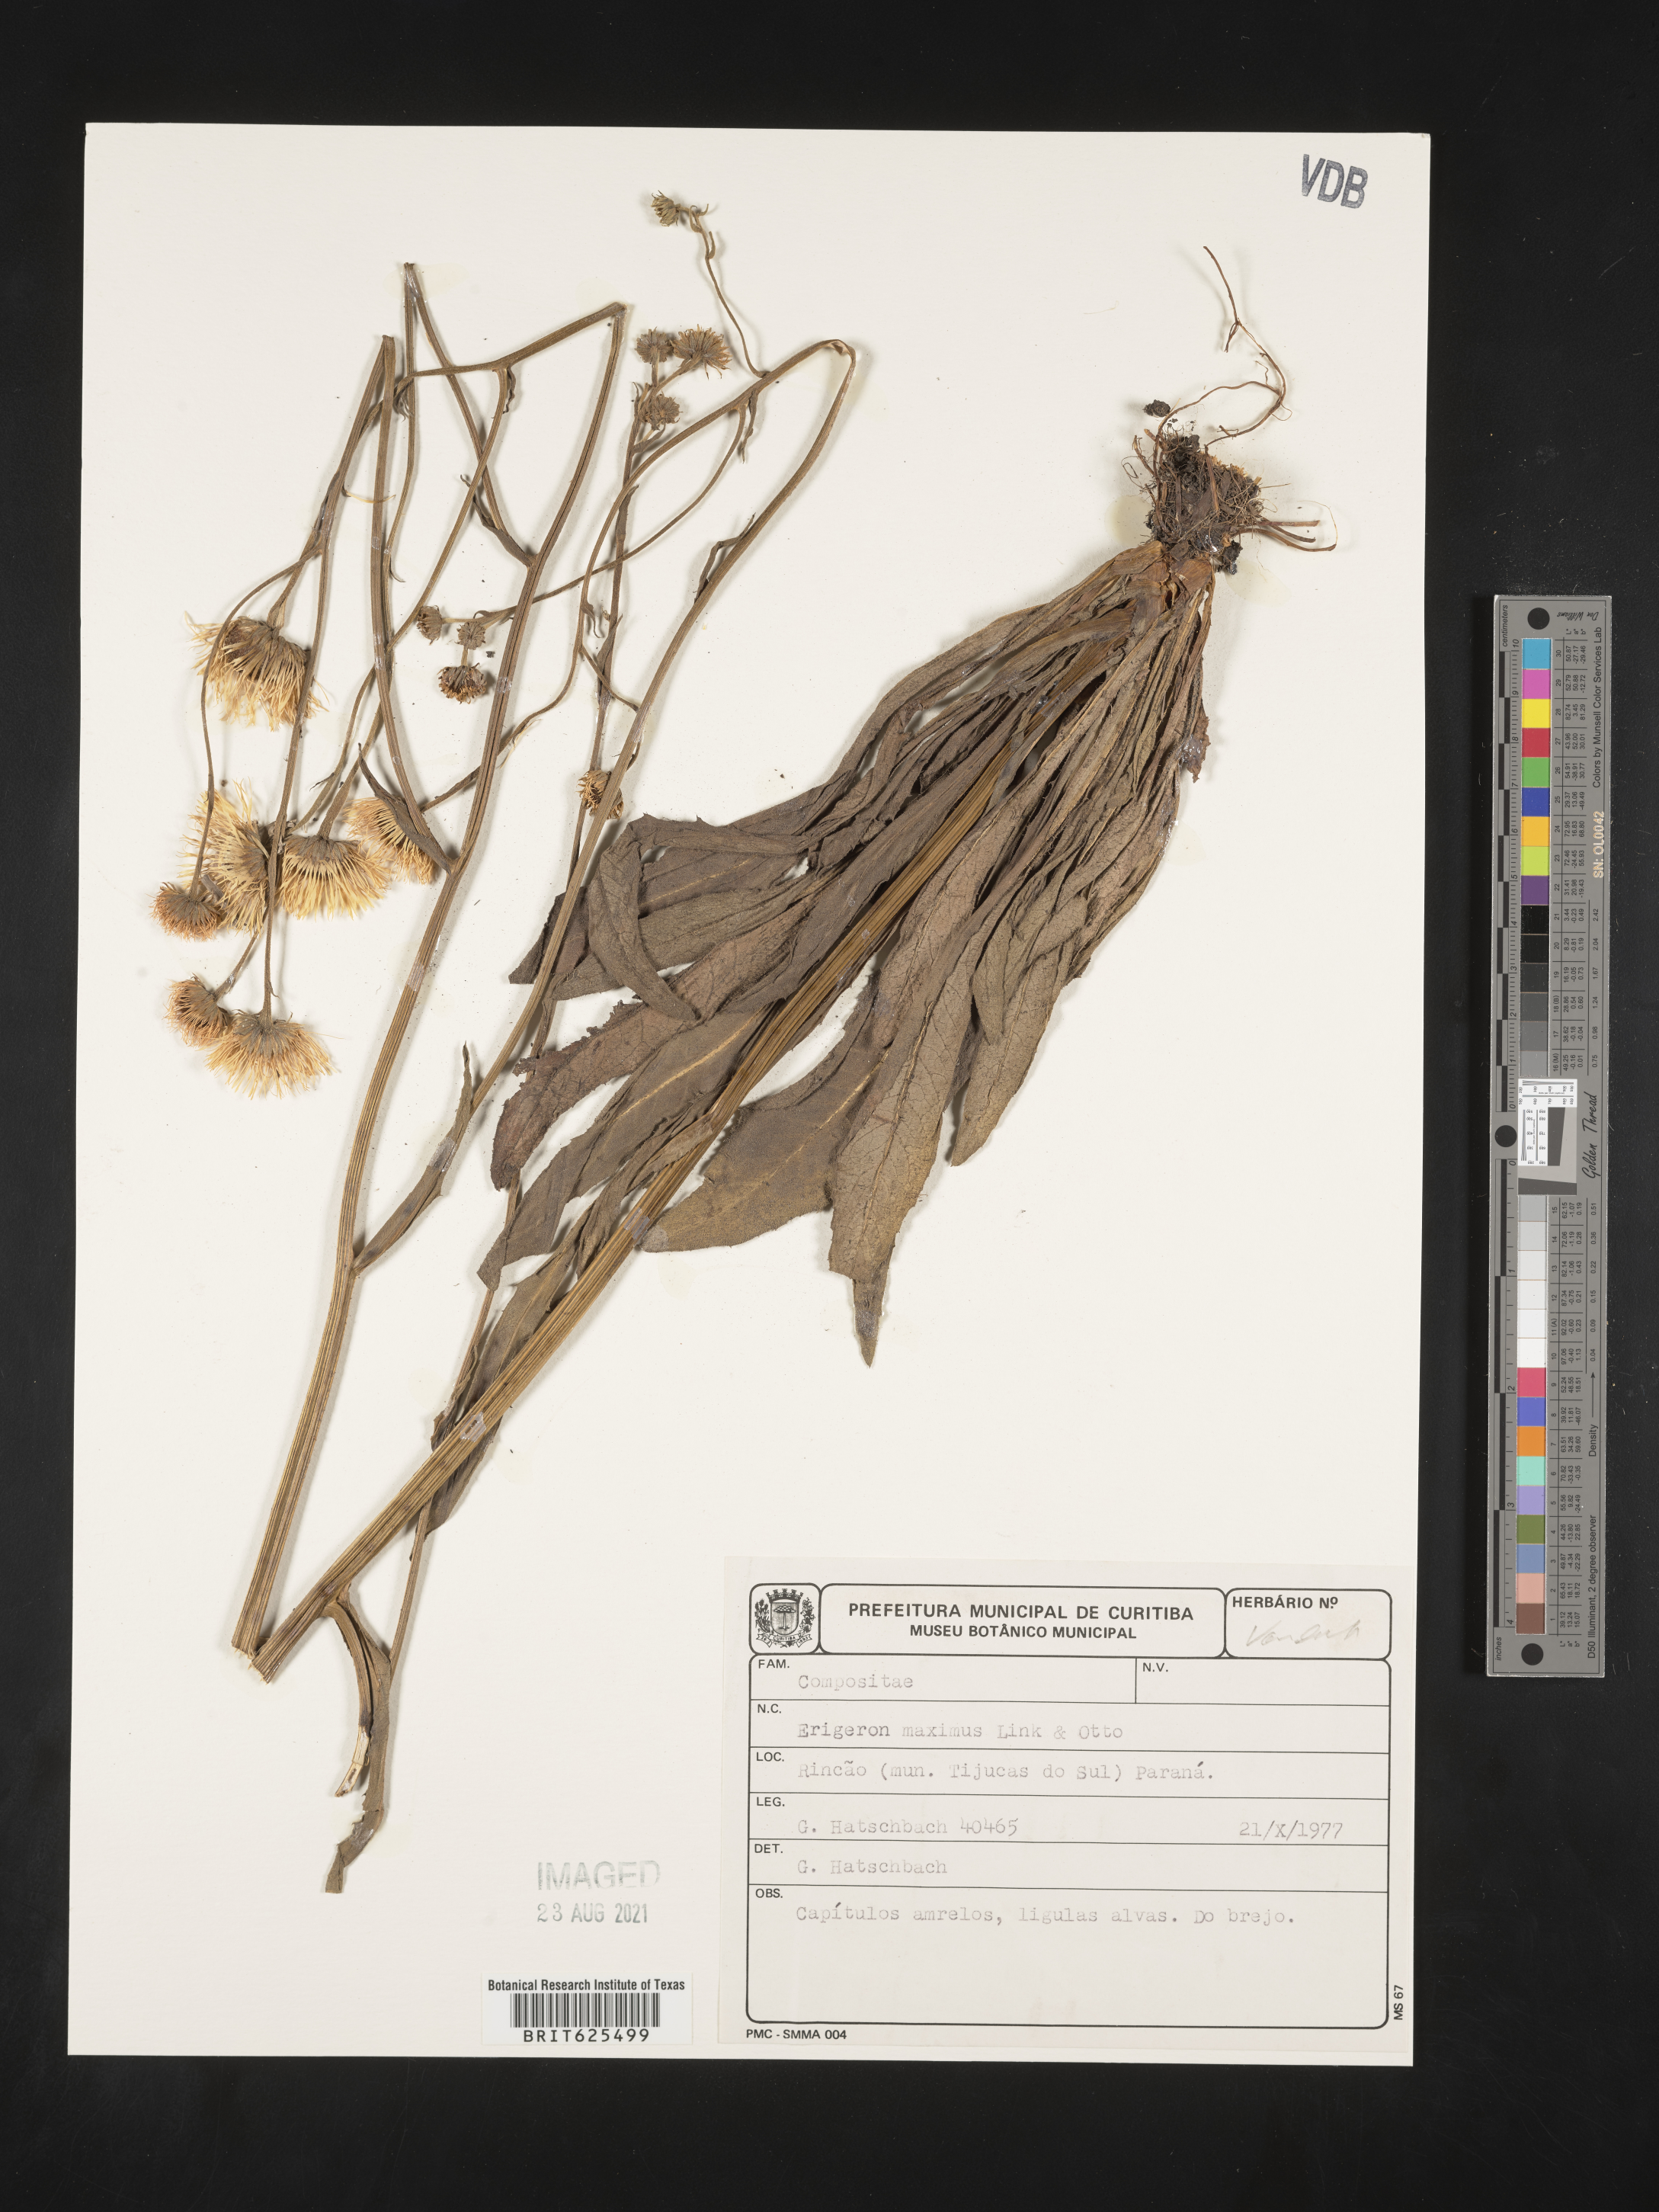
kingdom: Plantae
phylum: Tracheophyta
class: Magnoliopsida
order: Asterales
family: Asteraceae
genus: Leptostelma
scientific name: Leptostelma maxima
